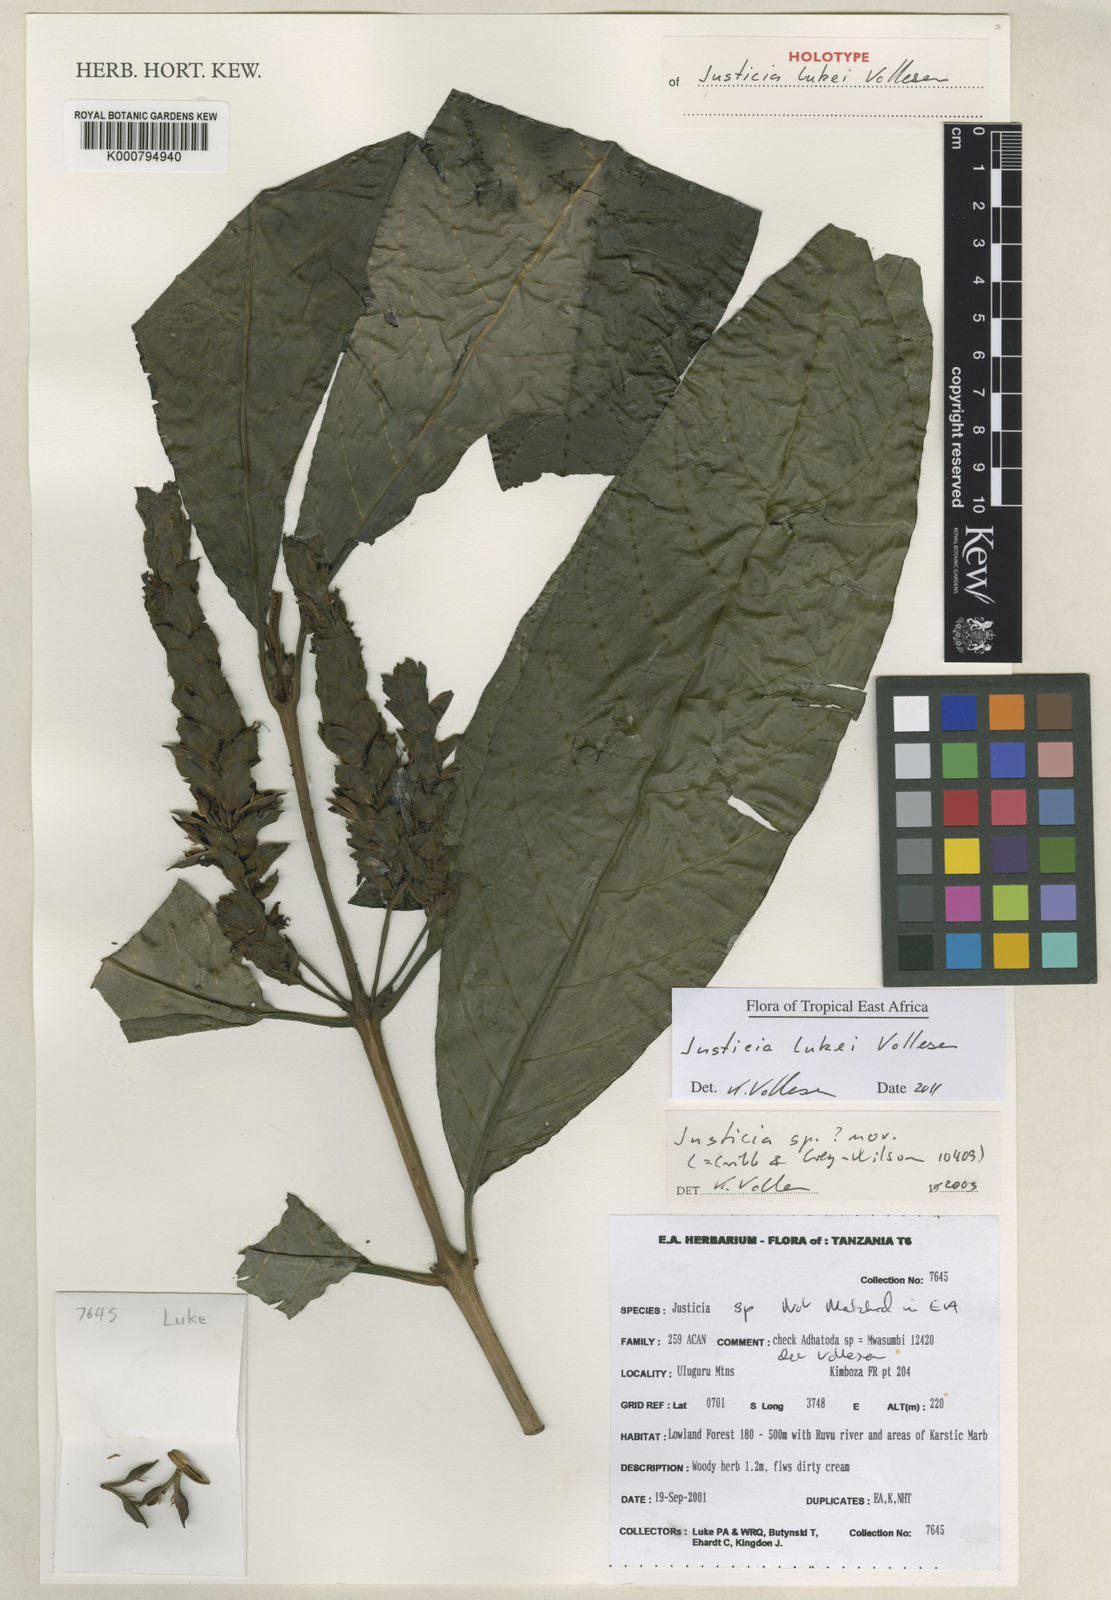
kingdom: Plantae
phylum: Tracheophyta
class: Magnoliopsida
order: Lamiales
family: Acanthaceae
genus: Justicia
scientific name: Justicia lukei
